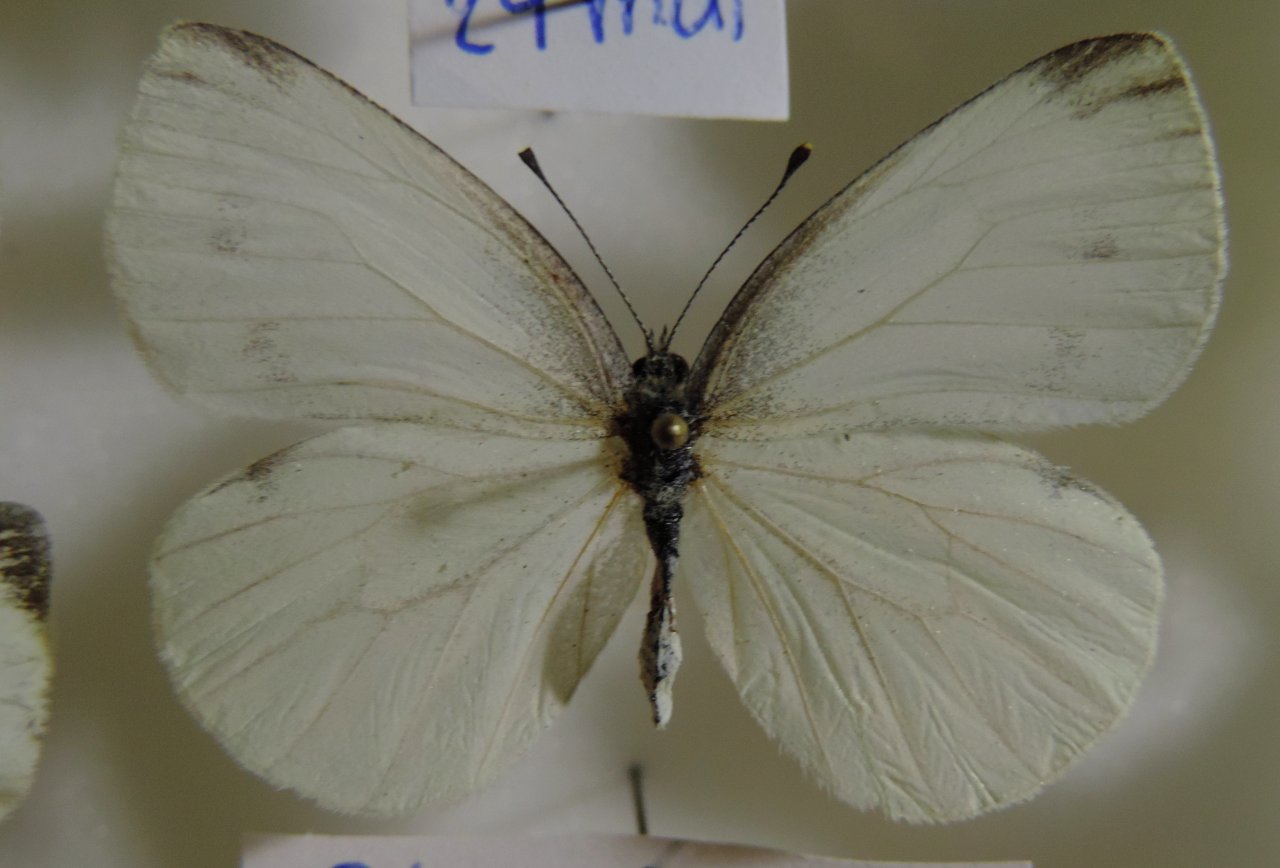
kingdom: Animalia
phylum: Arthropoda
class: Insecta
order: Lepidoptera
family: Pieridae
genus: Pieris
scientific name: Pieris rapae
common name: Cabbage White
